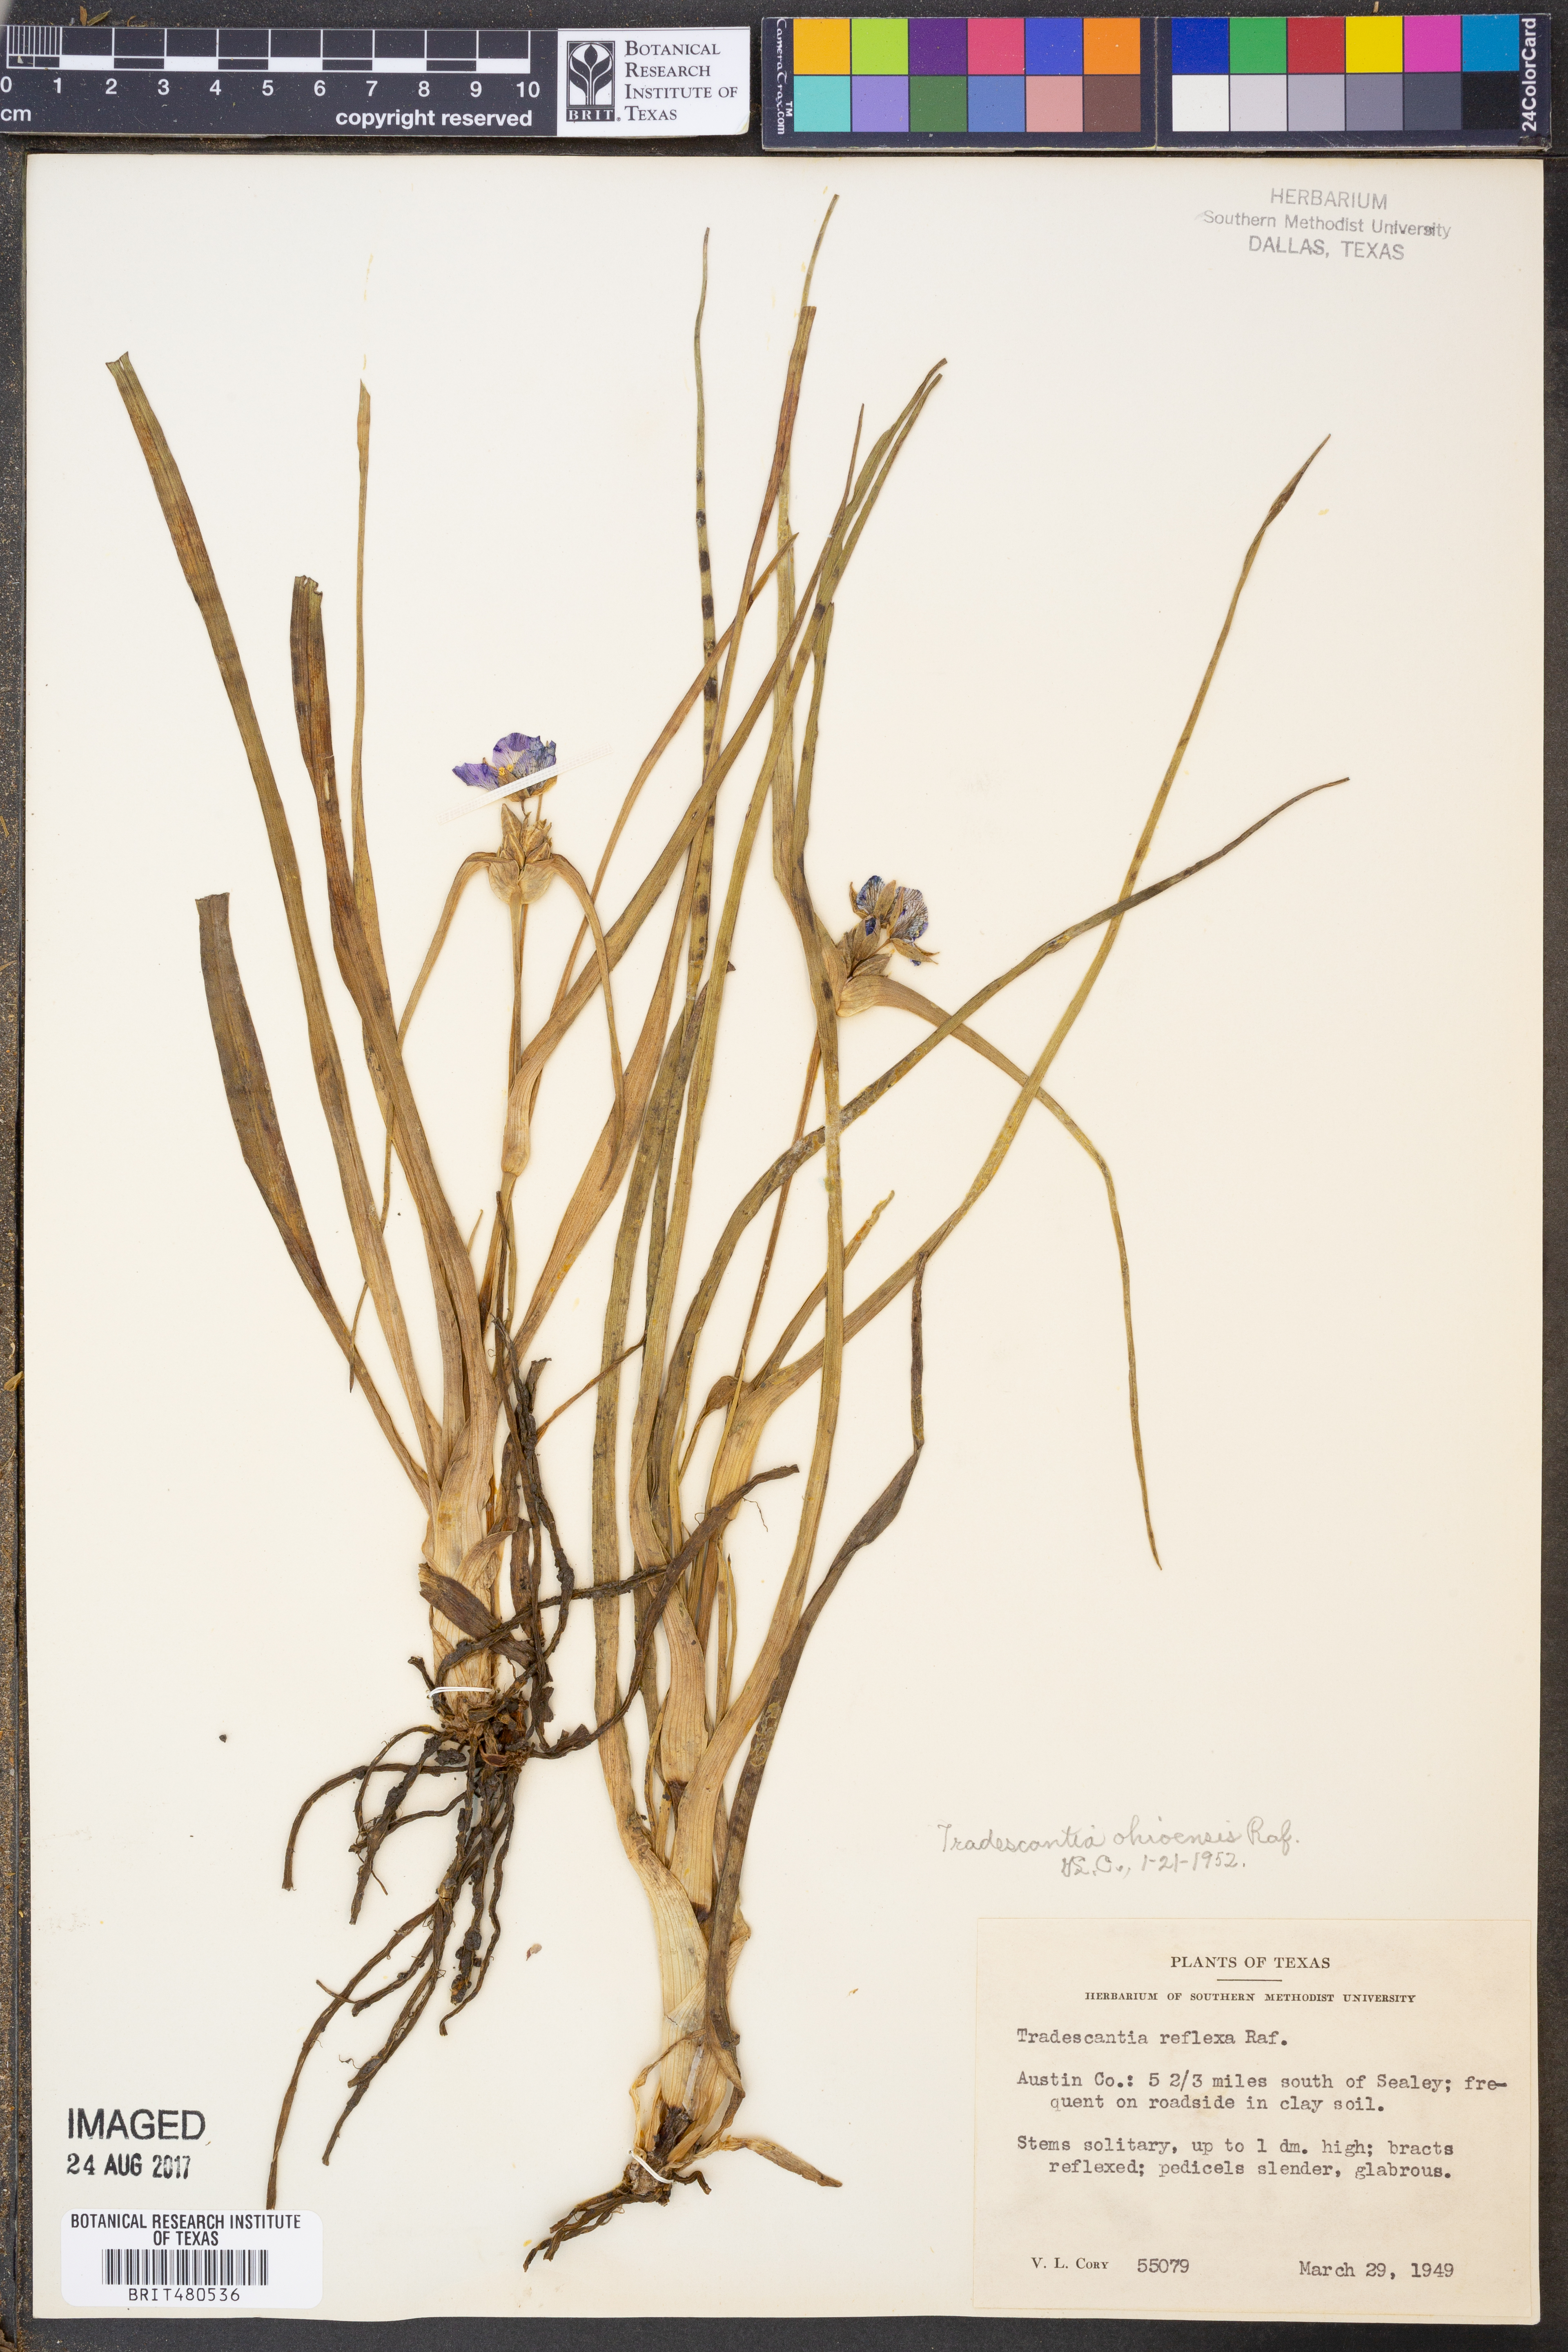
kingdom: Plantae
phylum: Tracheophyta
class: Liliopsida
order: Commelinales
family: Commelinaceae
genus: Tradescantia
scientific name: Tradescantia ohiensis
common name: Ohio spiderwort
